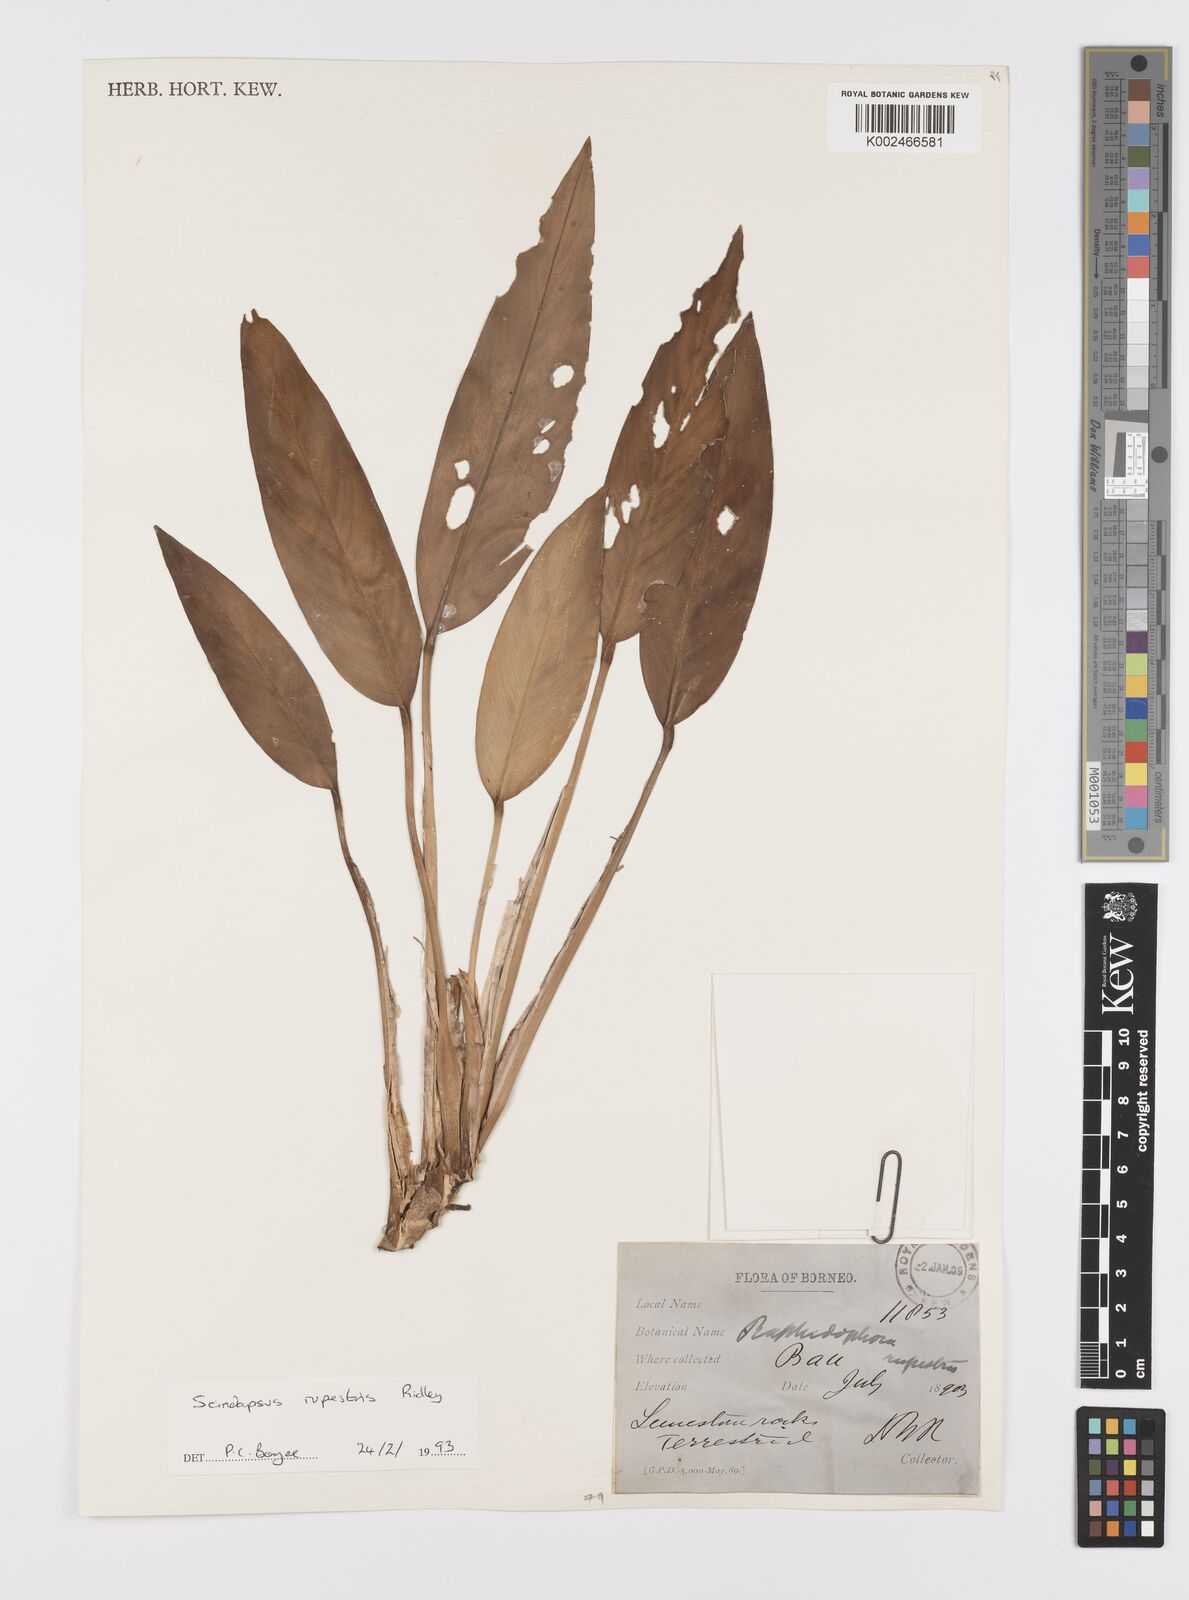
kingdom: Plantae
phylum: Tracheophyta
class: Liliopsida
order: Alismatales
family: Araceae
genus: Scindapsus
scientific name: Scindapsus sumatranus
